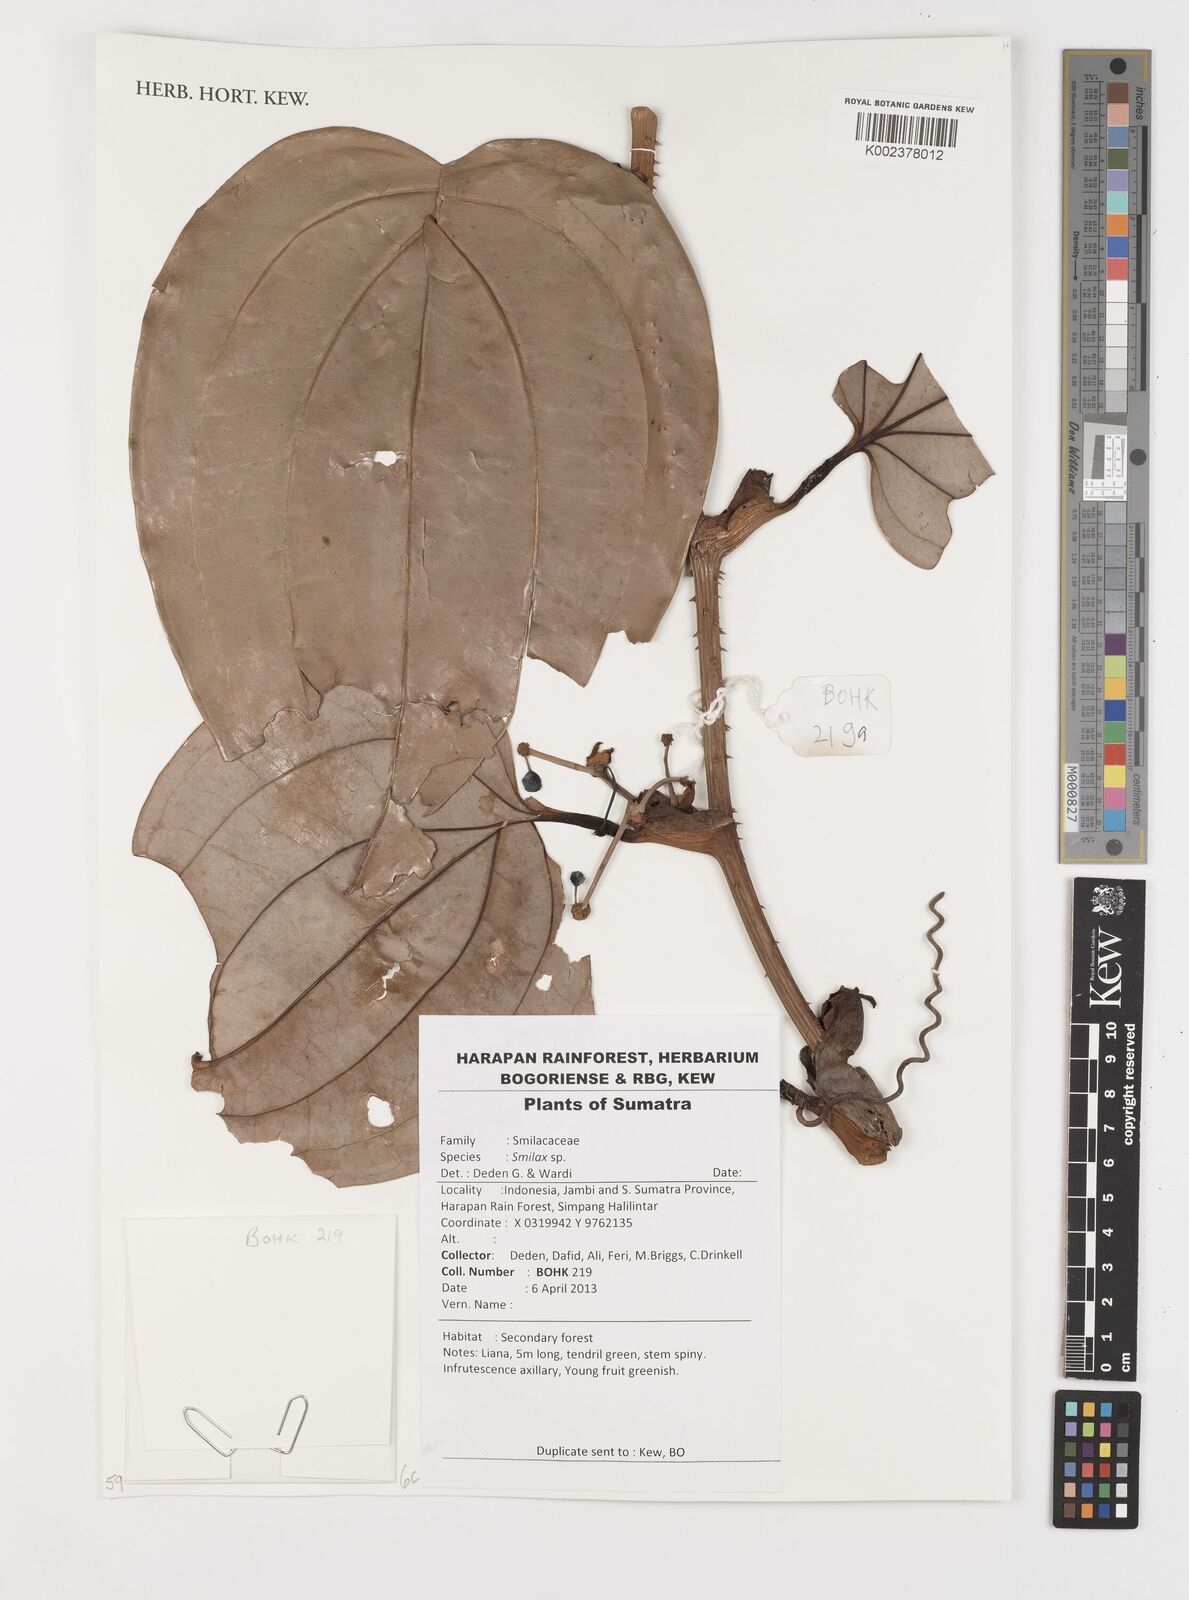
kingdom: Plantae
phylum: Tracheophyta
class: Liliopsida
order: Liliales
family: Smilacaceae
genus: Smilax
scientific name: Smilax
